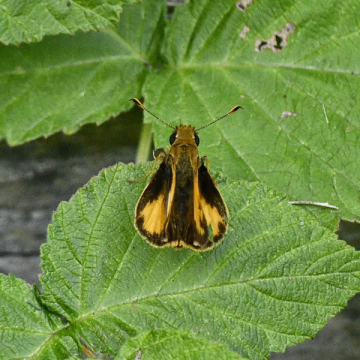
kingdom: Animalia
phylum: Arthropoda
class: Insecta
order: Lepidoptera
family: Hesperiidae
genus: Lon
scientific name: Lon zabulon
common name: Zabulon Skipper
